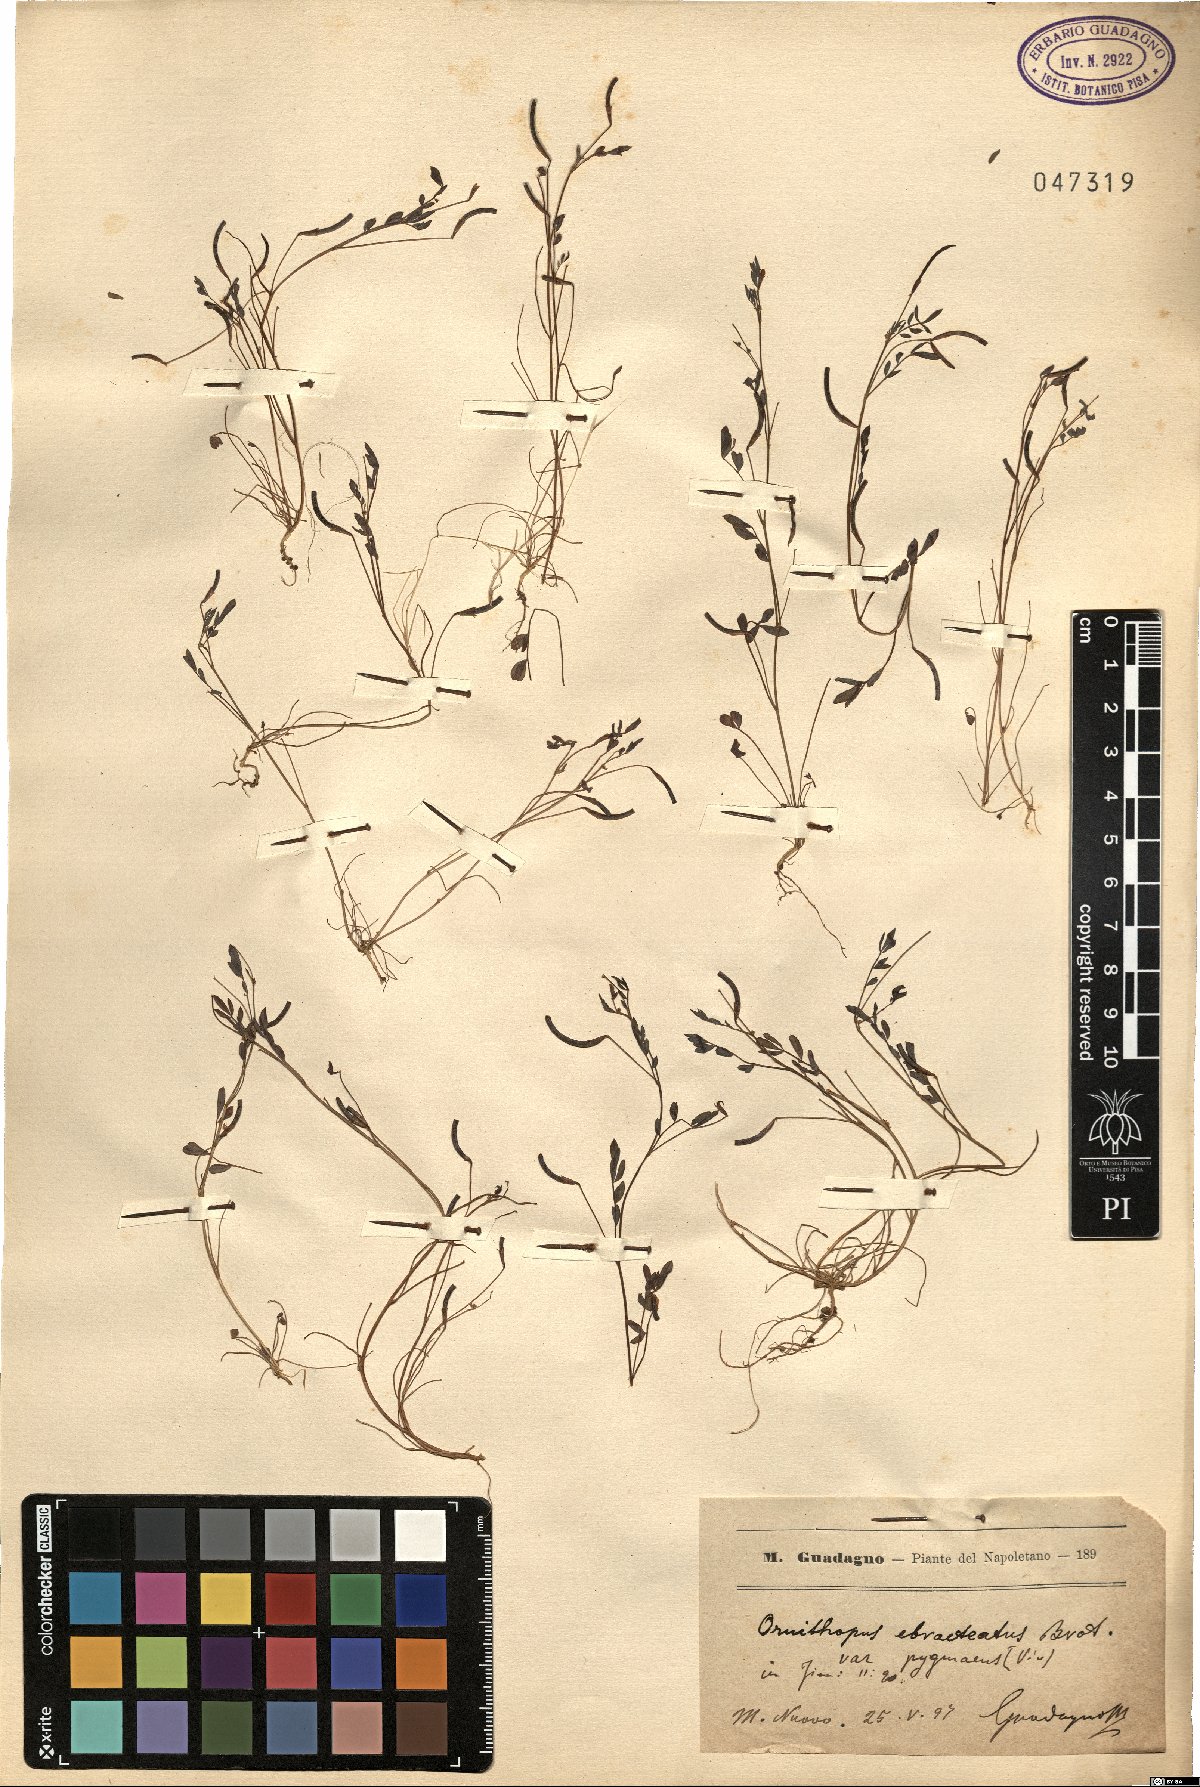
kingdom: Plantae
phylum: Tracheophyta
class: Magnoliopsida
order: Fabales
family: Fabaceae
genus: Ornithopus
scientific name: Ornithopus pinnatus
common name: Orange bird's-foot
